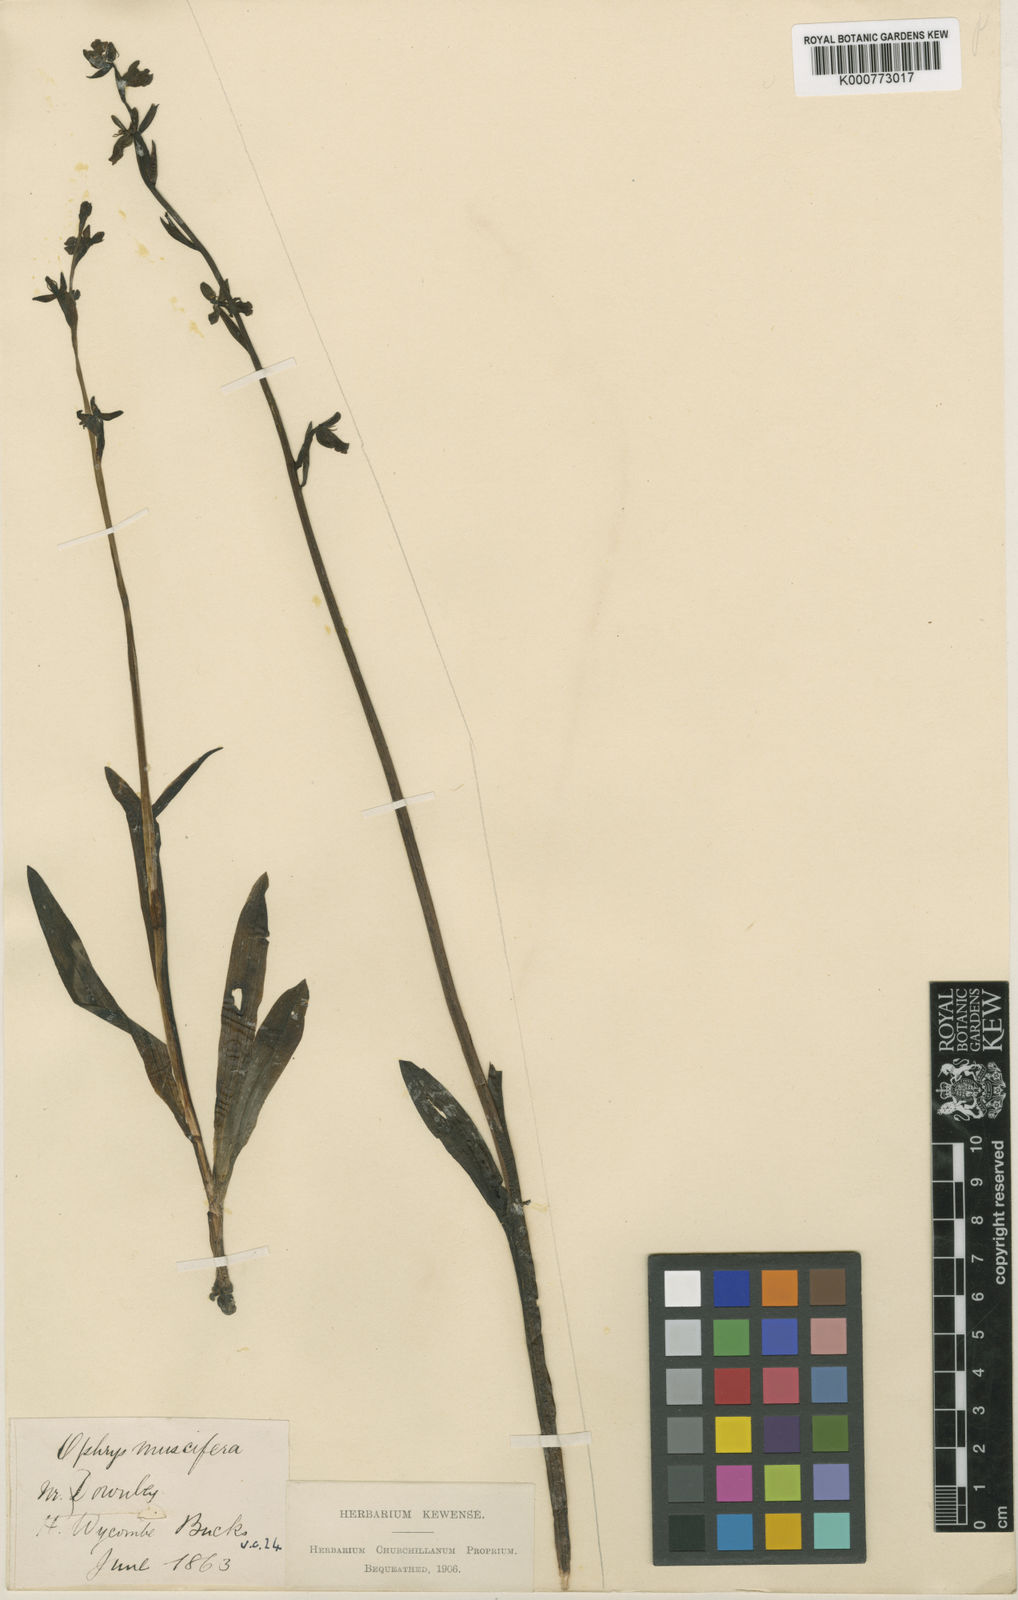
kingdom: Plantae
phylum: Tracheophyta
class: Liliopsida
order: Asparagales
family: Orchidaceae
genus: Ophrys
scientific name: Ophrys insectifera
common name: Fly orchid
